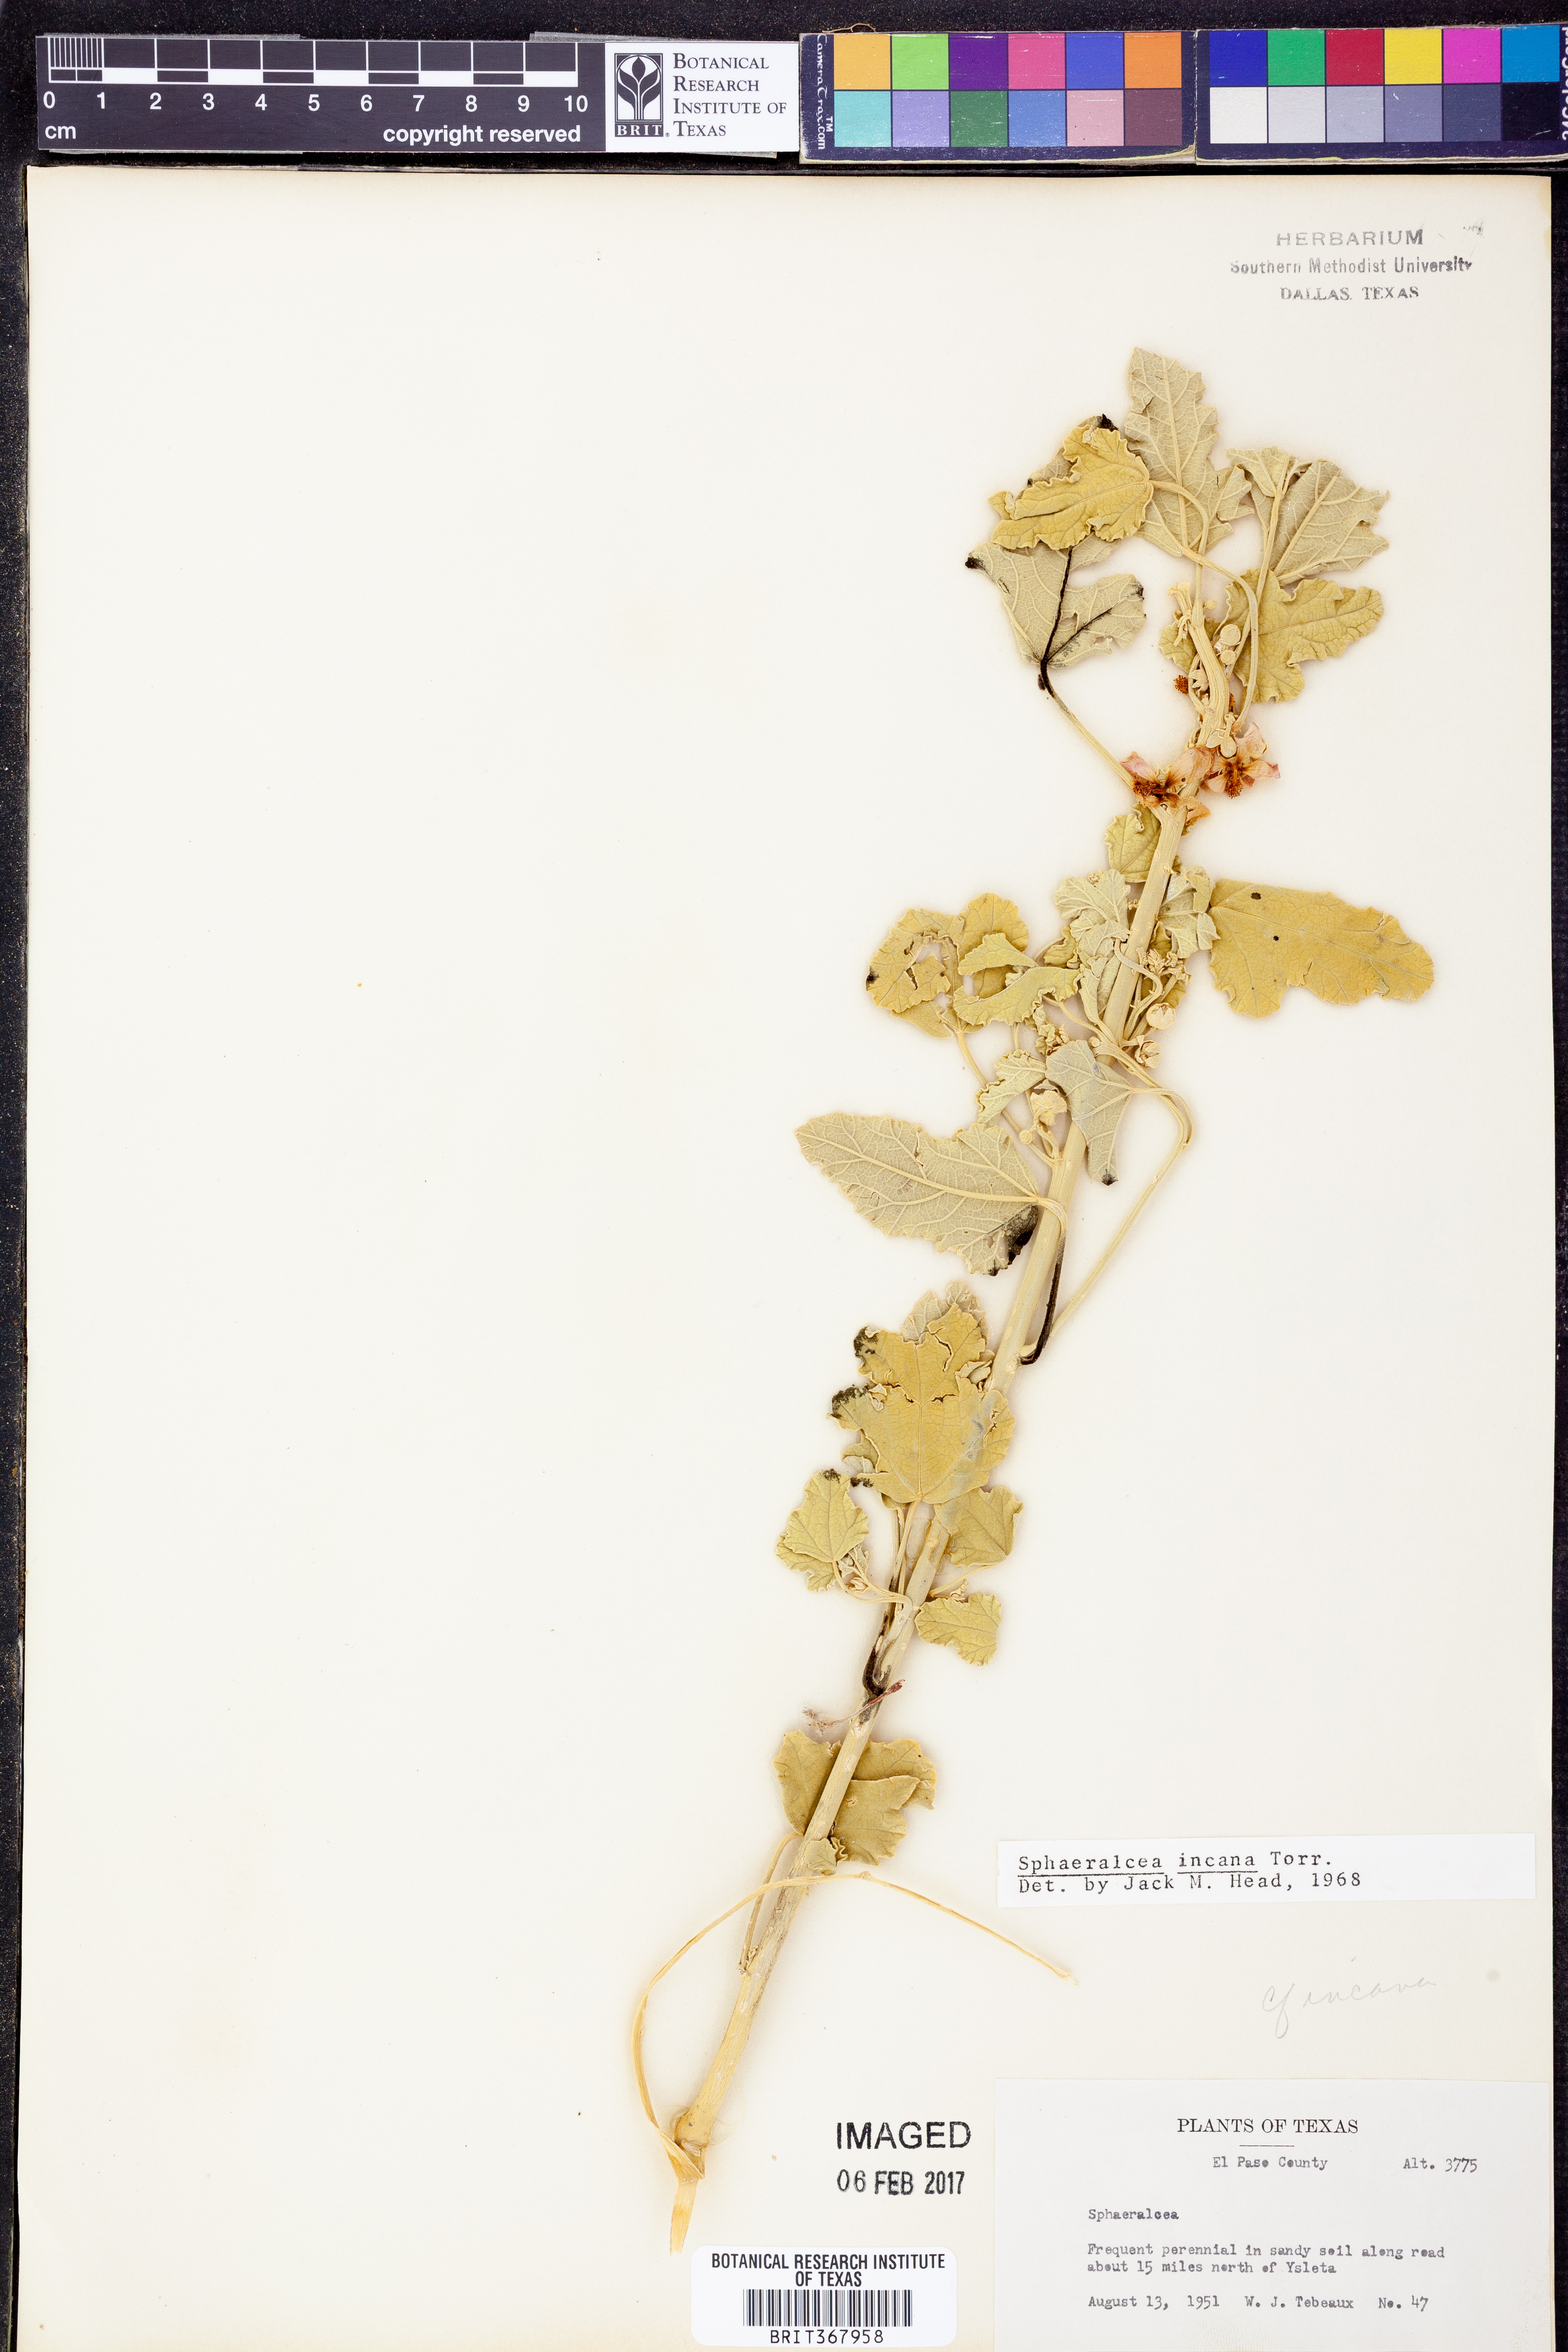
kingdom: Plantae
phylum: Tracheophyta
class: Magnoliopsida
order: Malvales
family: Malvaceae
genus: Sphaeralcea
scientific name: Sphaeralcea incana
